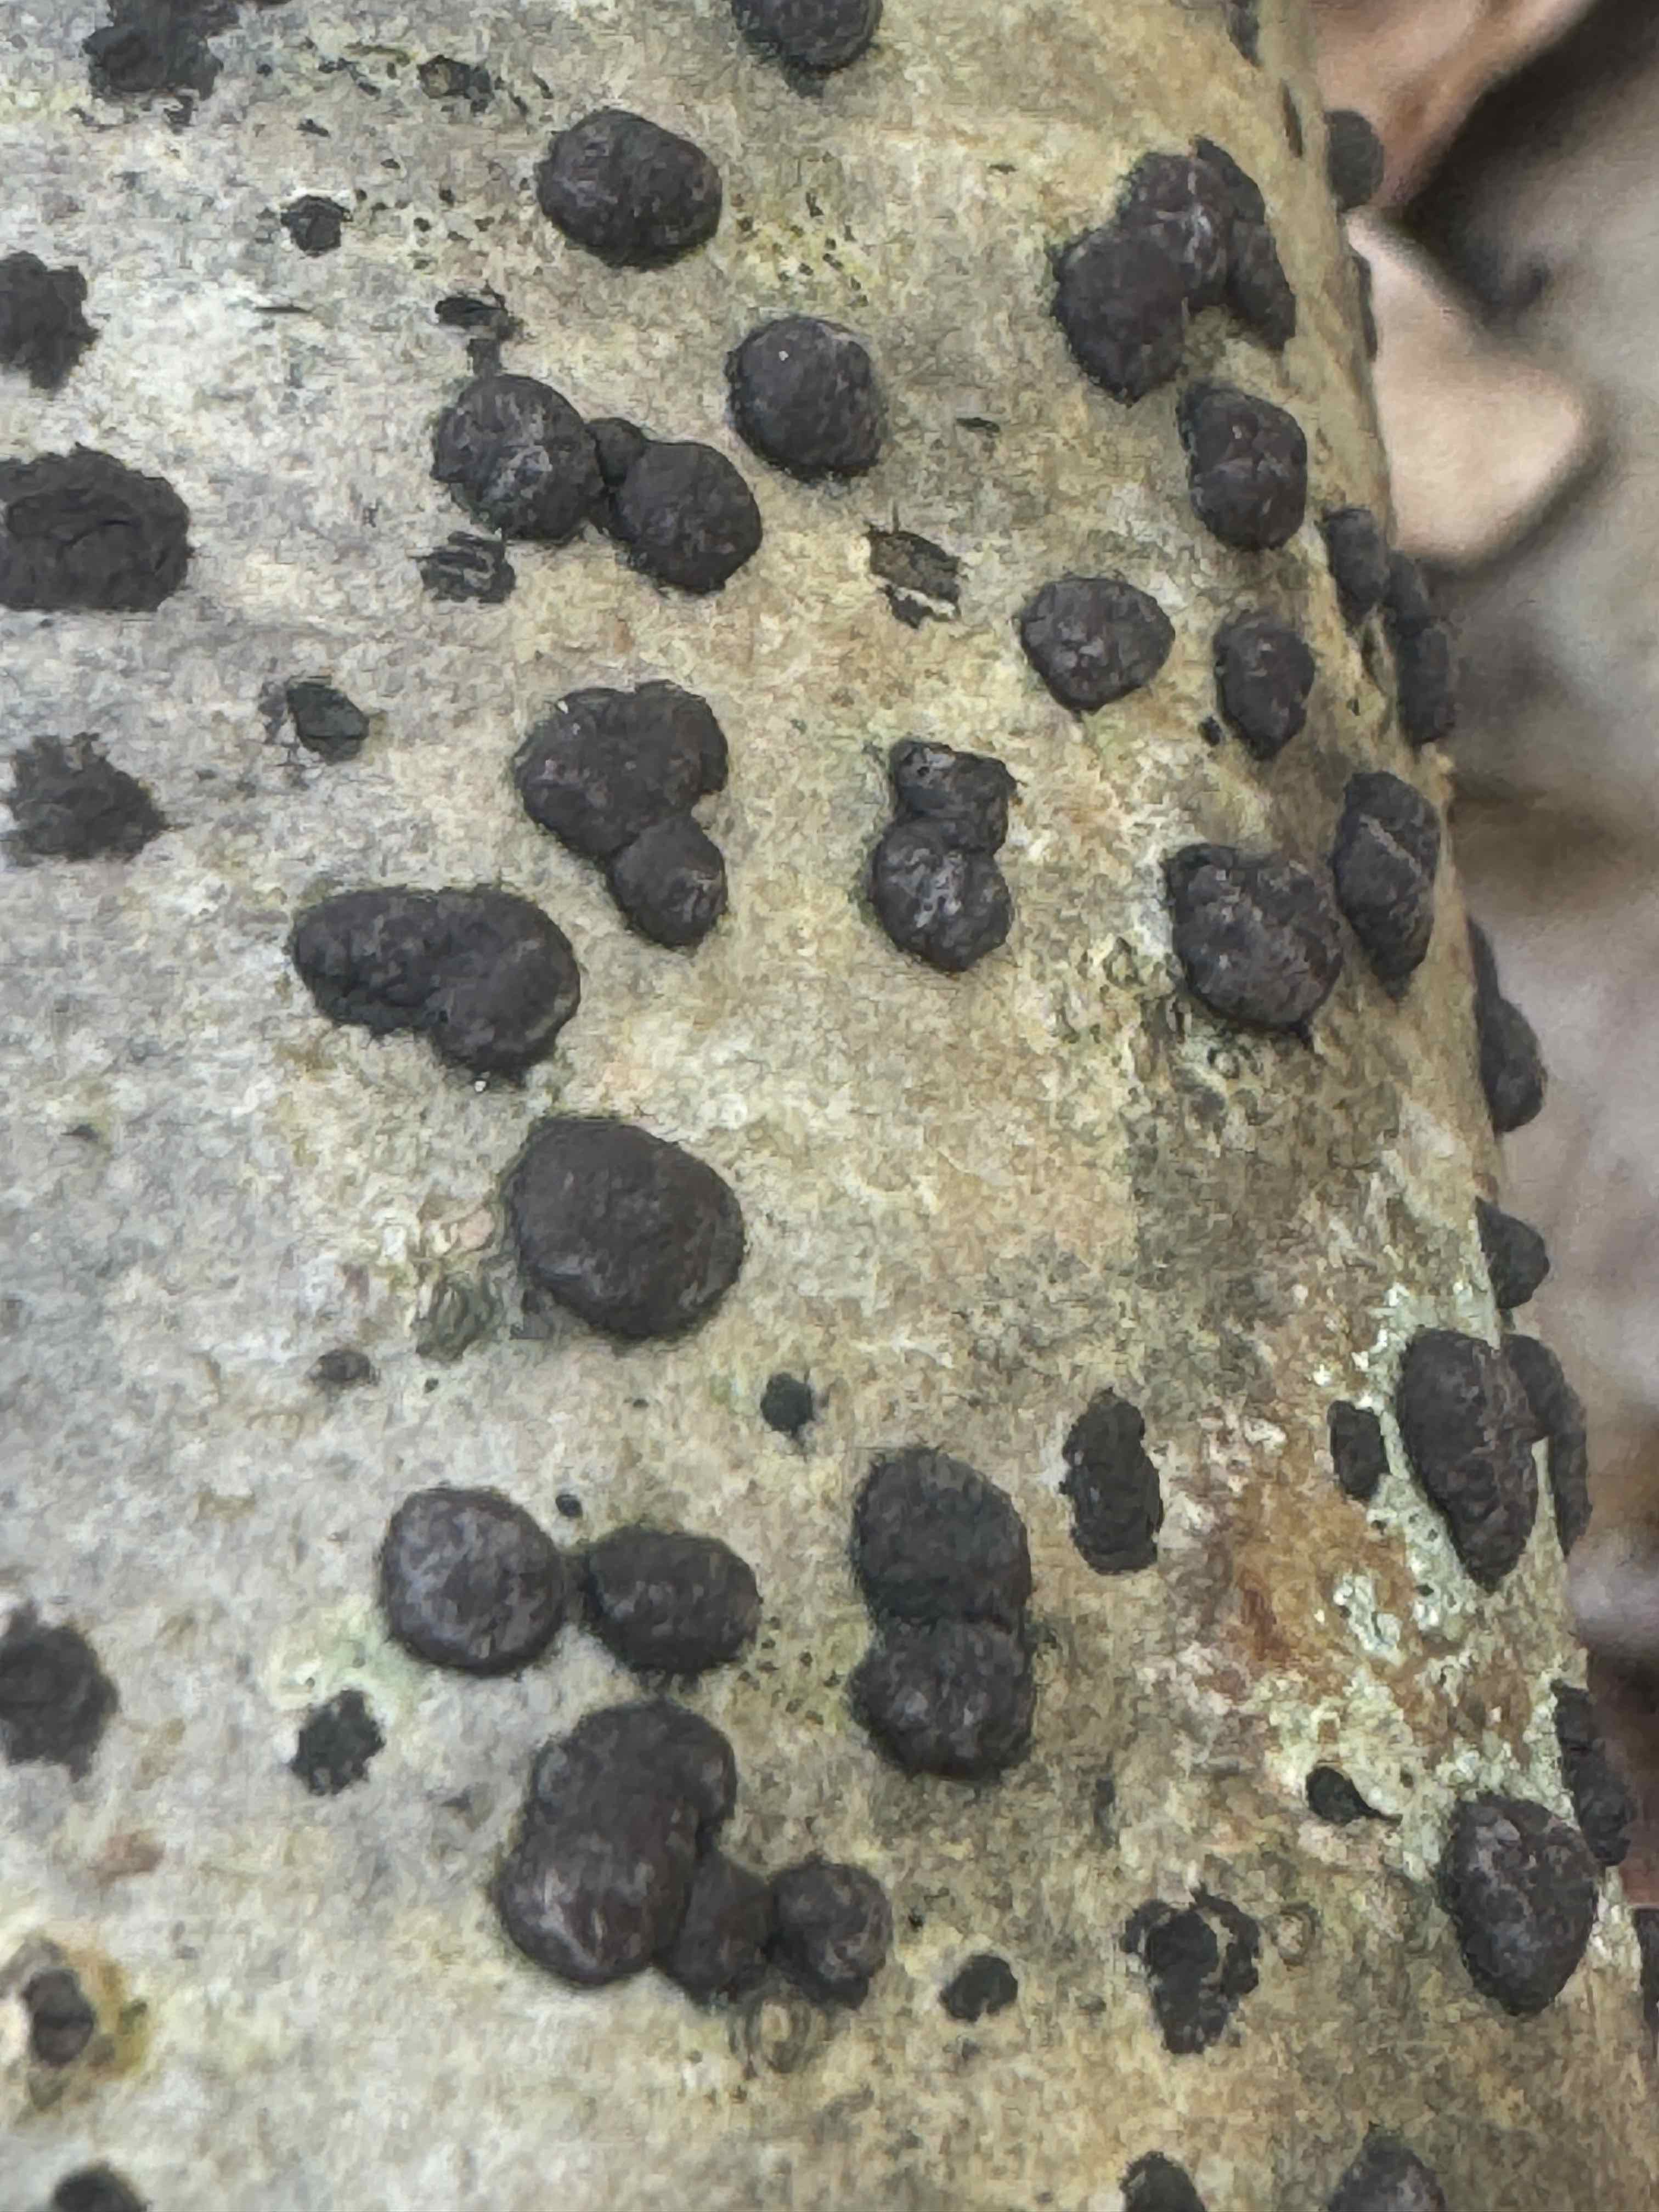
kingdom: Fungi
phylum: Ascomycota
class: Sordariomycetes
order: Xylariales
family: Hypoxylaceae
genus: Hypoxylon
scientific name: Hypoxylon fuscum
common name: kegleformet kulbær
